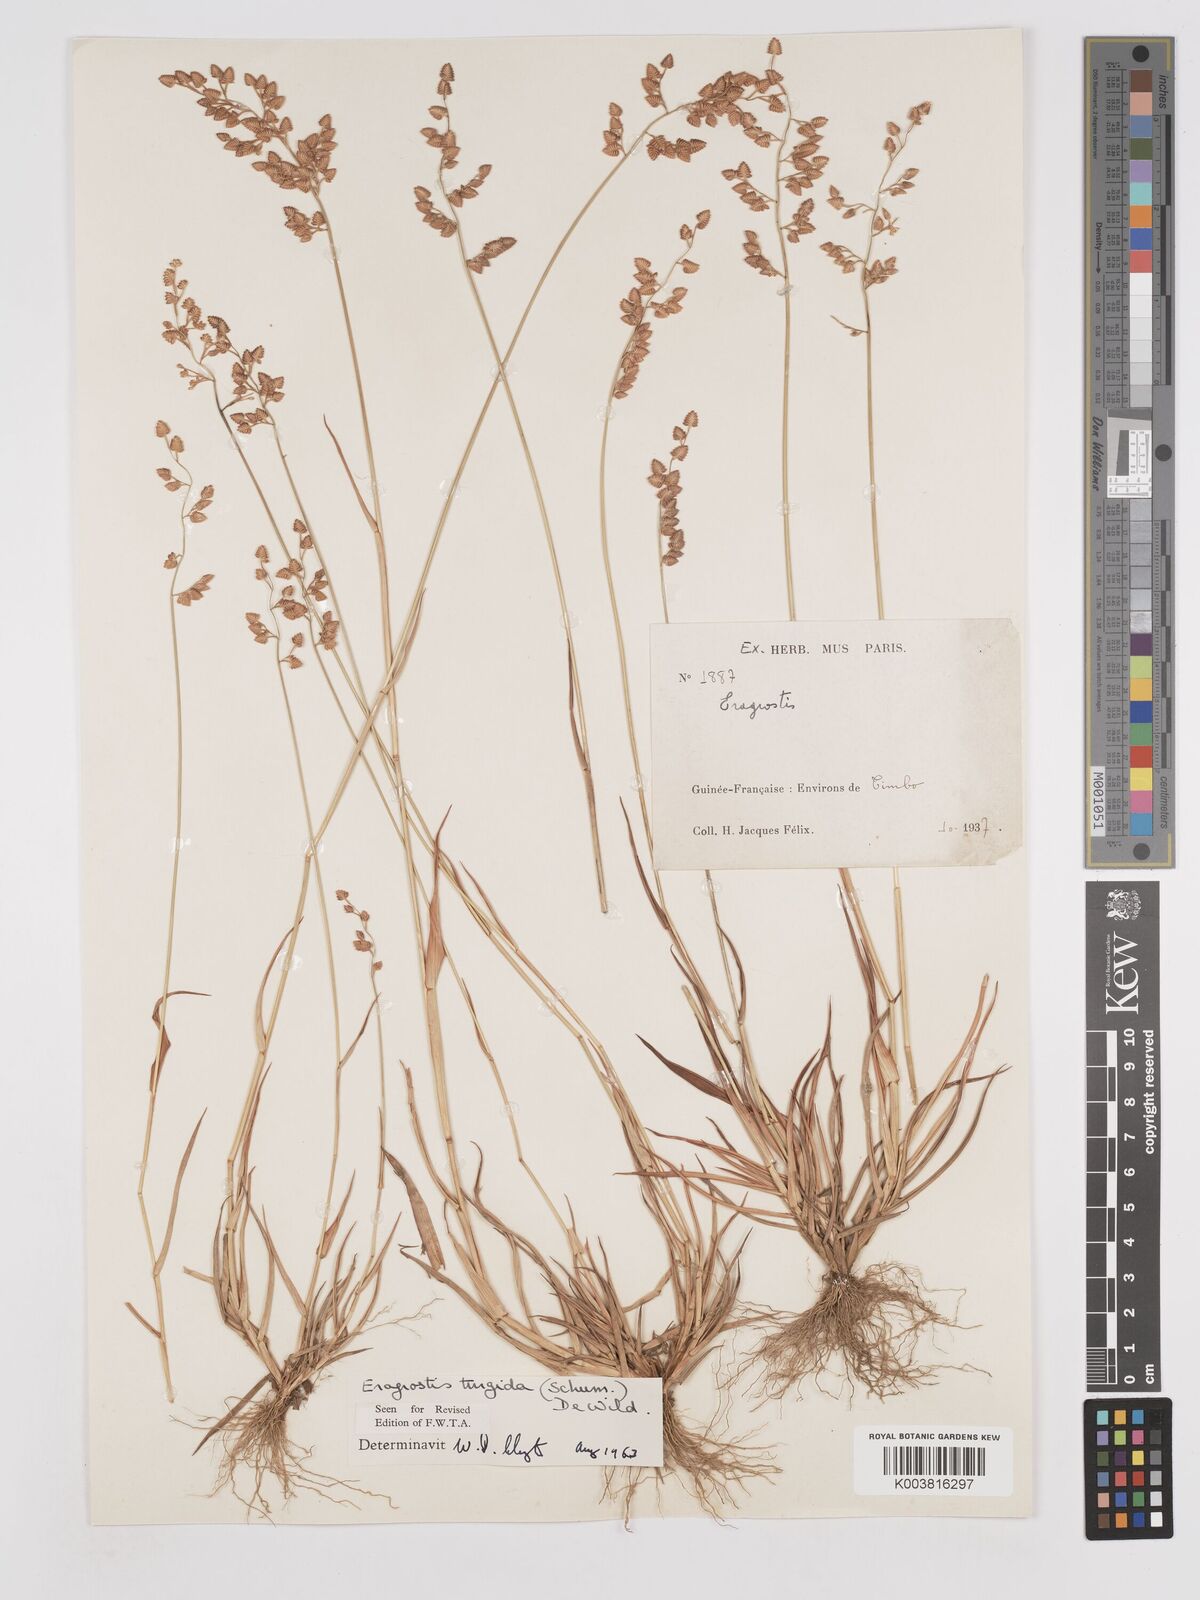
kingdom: Plantae
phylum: Tracheophyta
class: Liliopsida
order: Poales
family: Poaceae
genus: Eragrostis
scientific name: Eragrostis turgida
